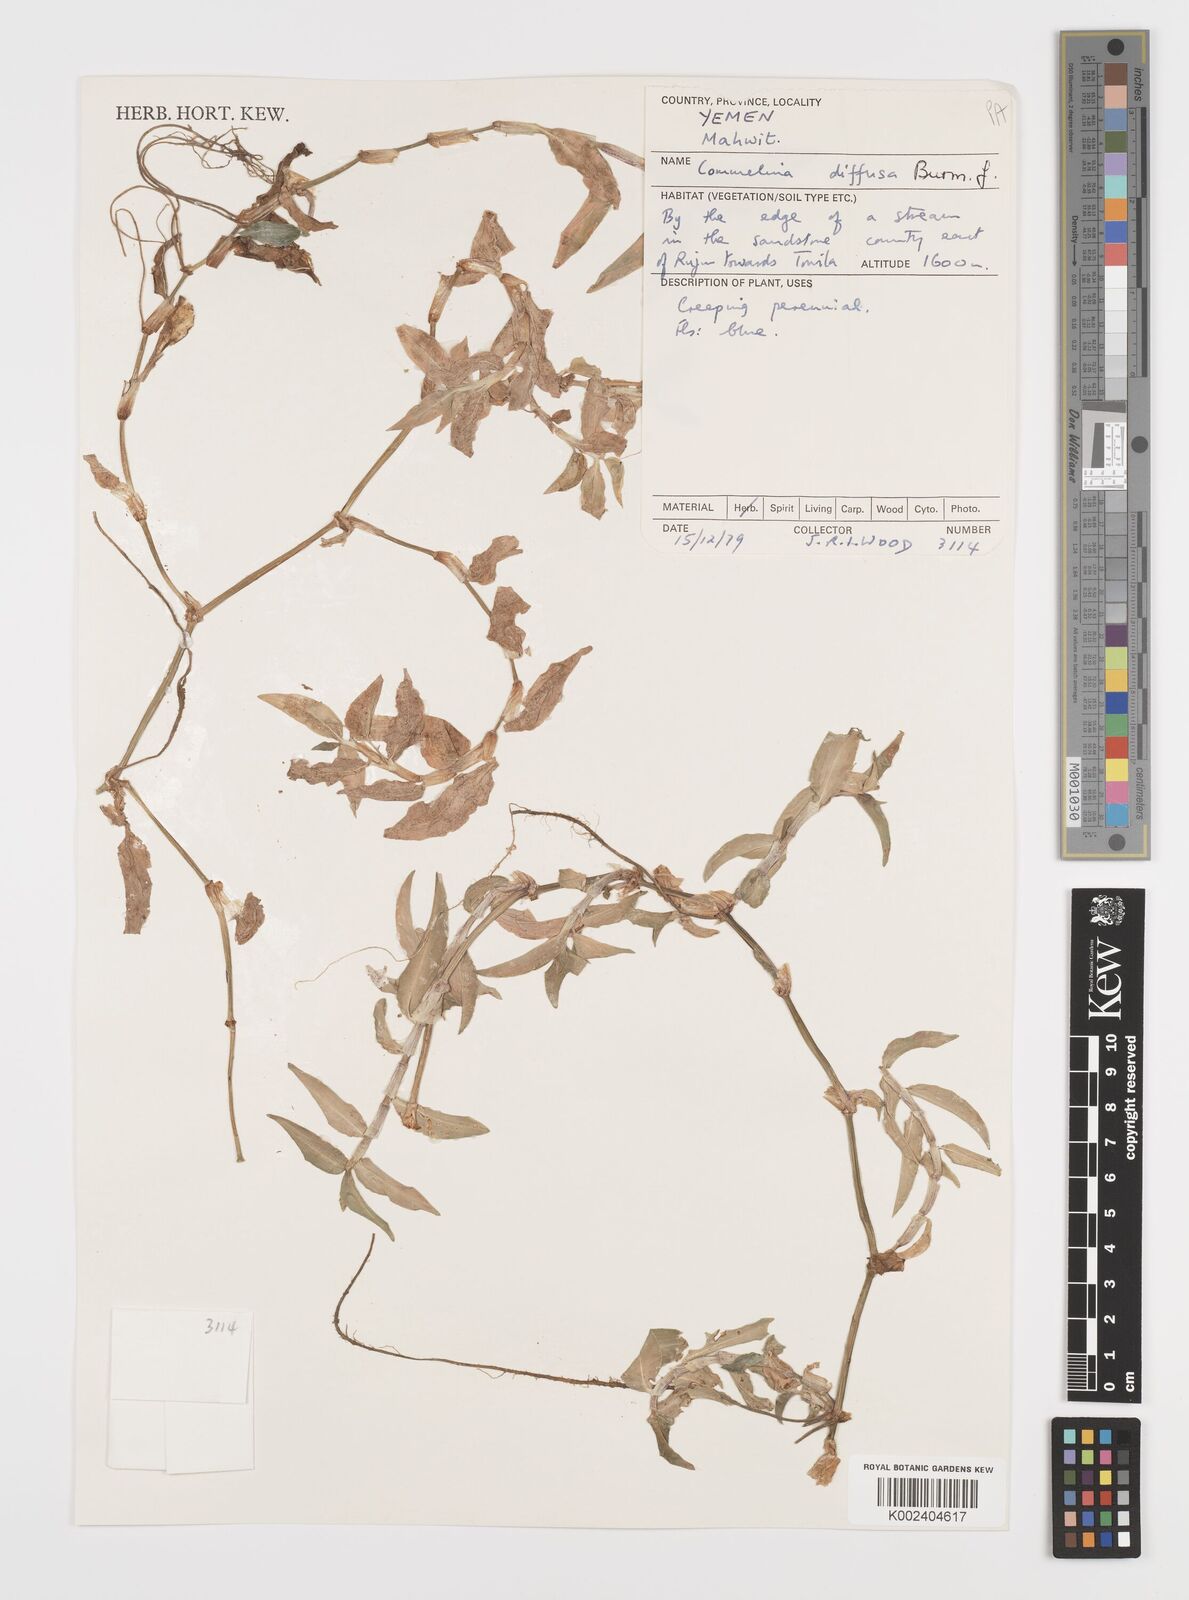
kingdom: Plantae
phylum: Tracheophyta
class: Liliopsida
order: Commelinales
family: Commelinaceae
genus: Commelina
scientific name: Commelina diffusa
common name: Climbing dayflower
